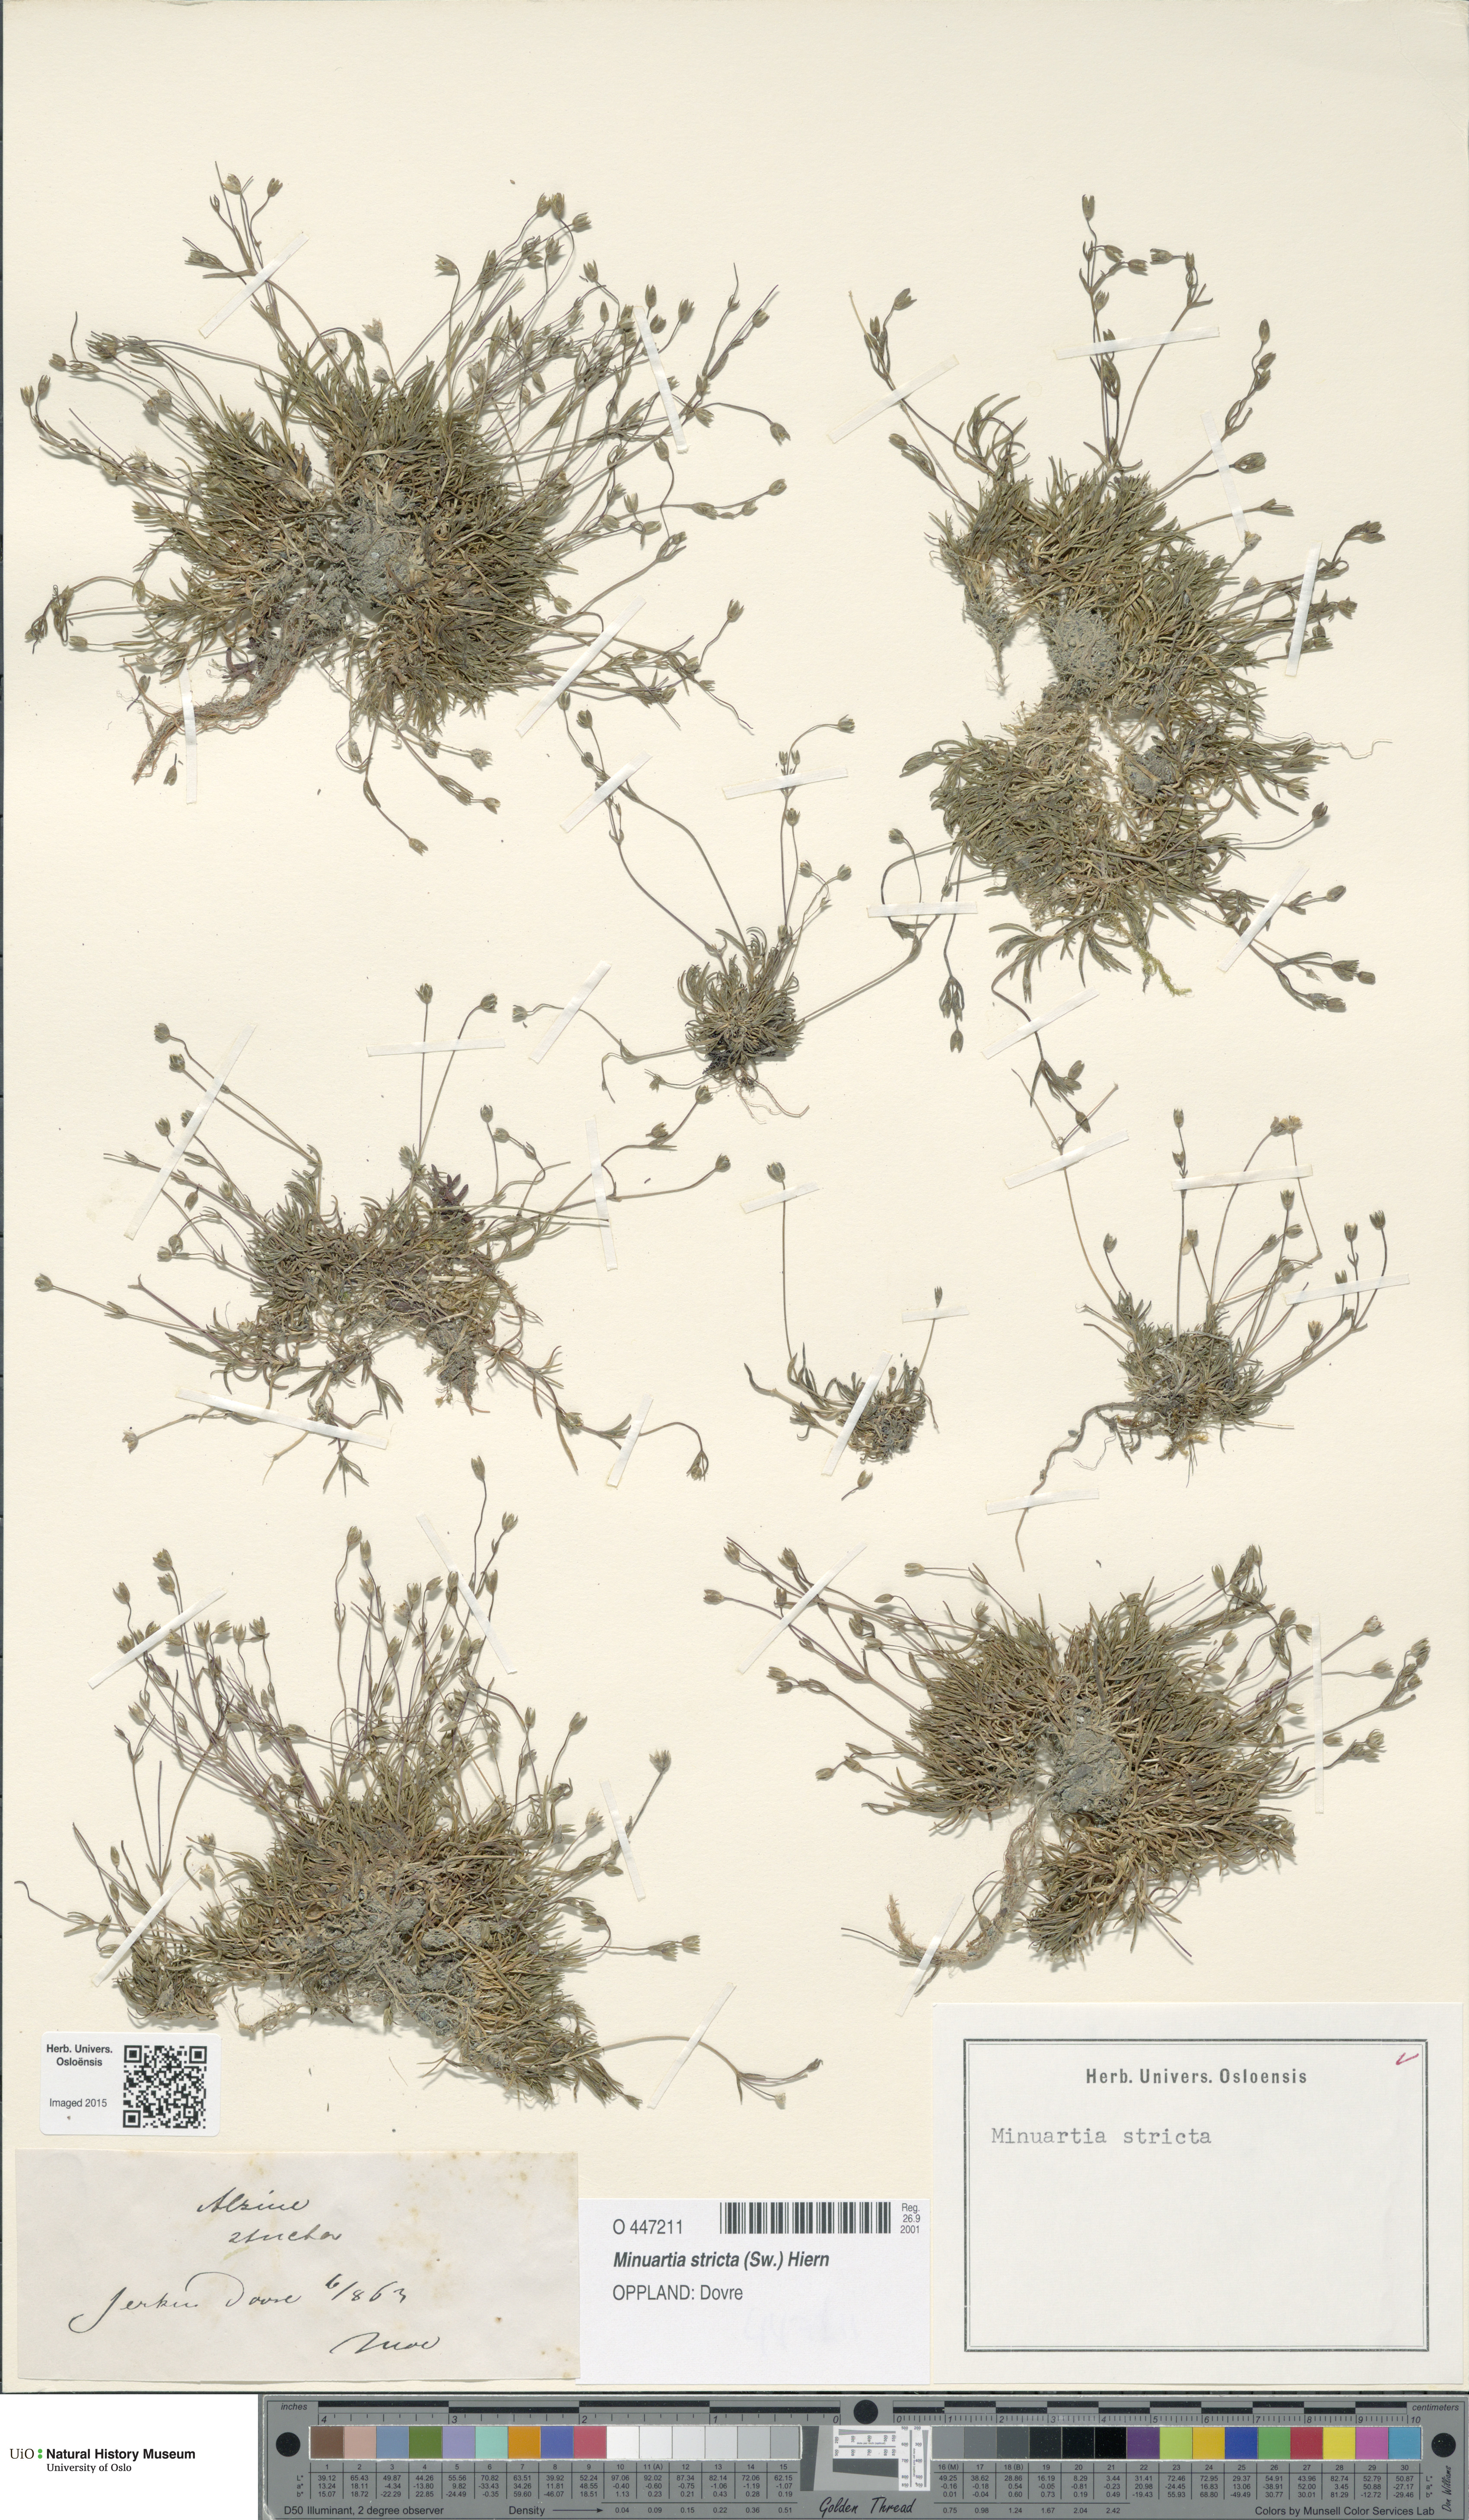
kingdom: Plantae
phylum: Tracheophyta
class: Magnoliopsida
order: Caryophyllales
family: Caryophyllaceae
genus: Sabulina
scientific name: Sabulina stricta
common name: Bog sandwort
